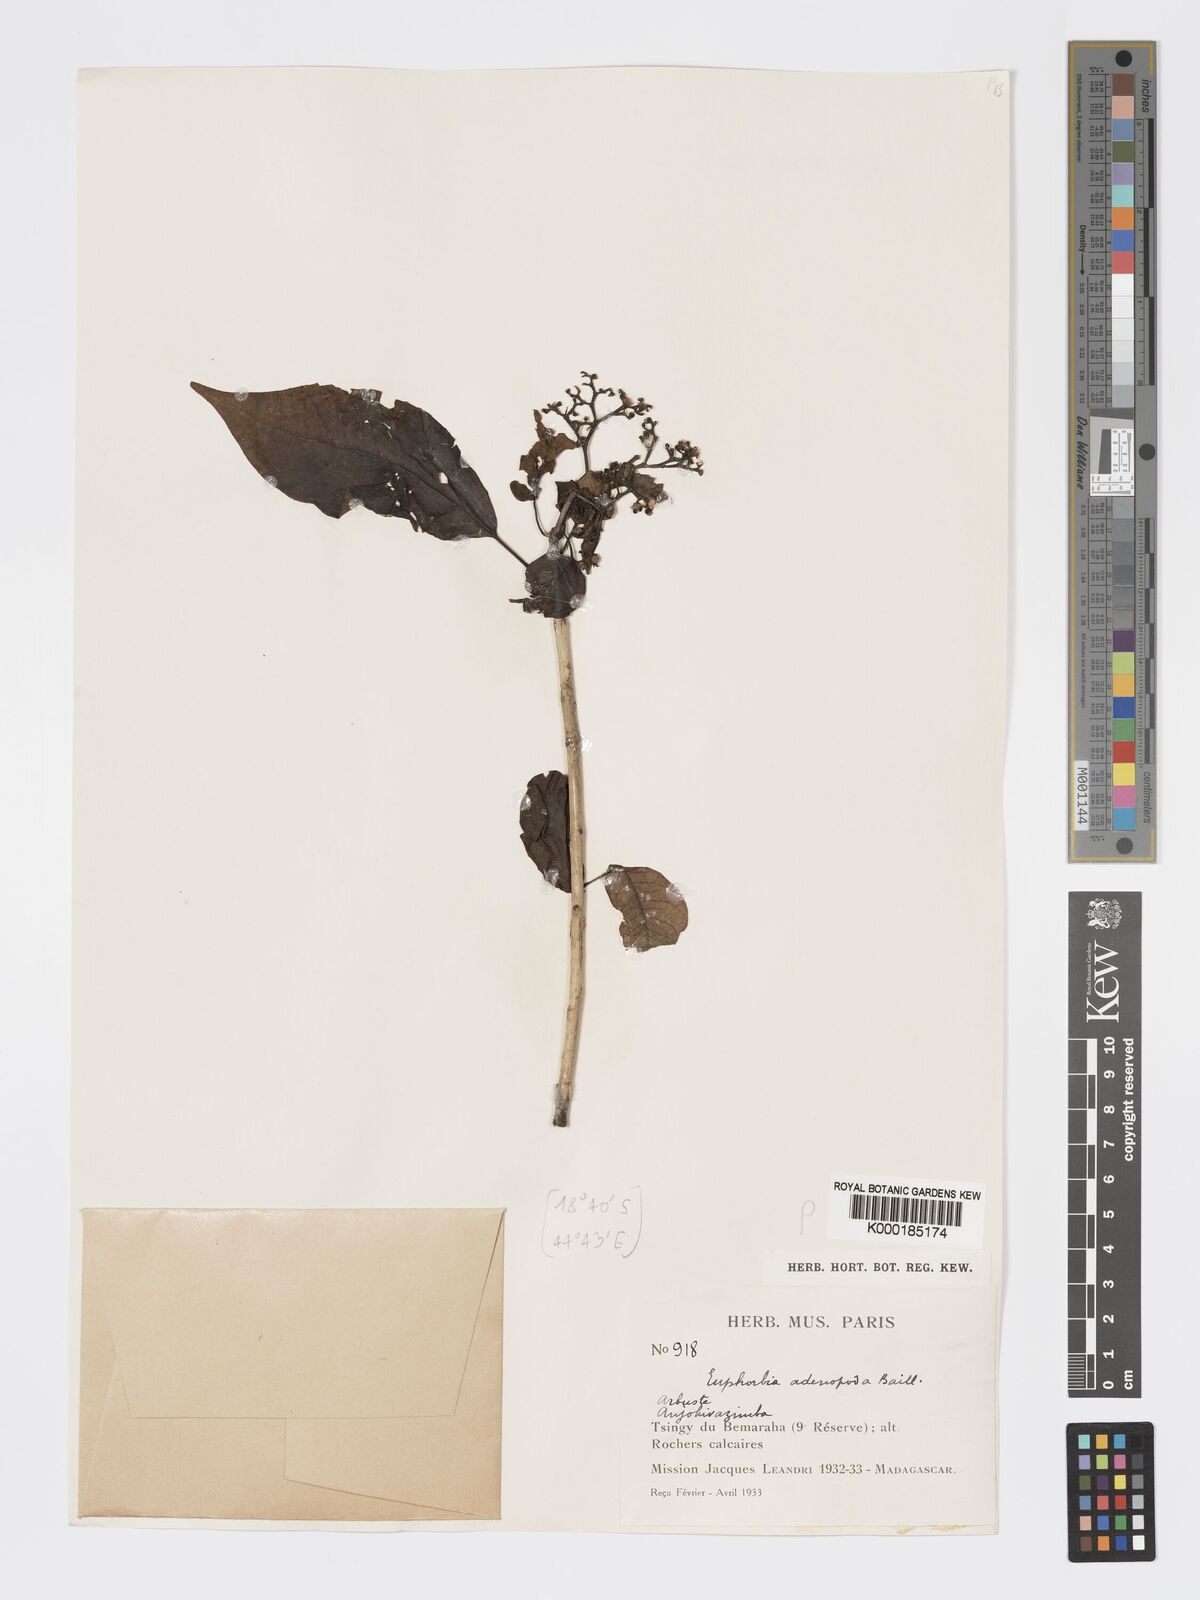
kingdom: Plantae
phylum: Tracheophyta
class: Magnoliopsida
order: Malpighiales
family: Euphorbiaceae
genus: Euphorbia
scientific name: Euphorbia adenopoda
